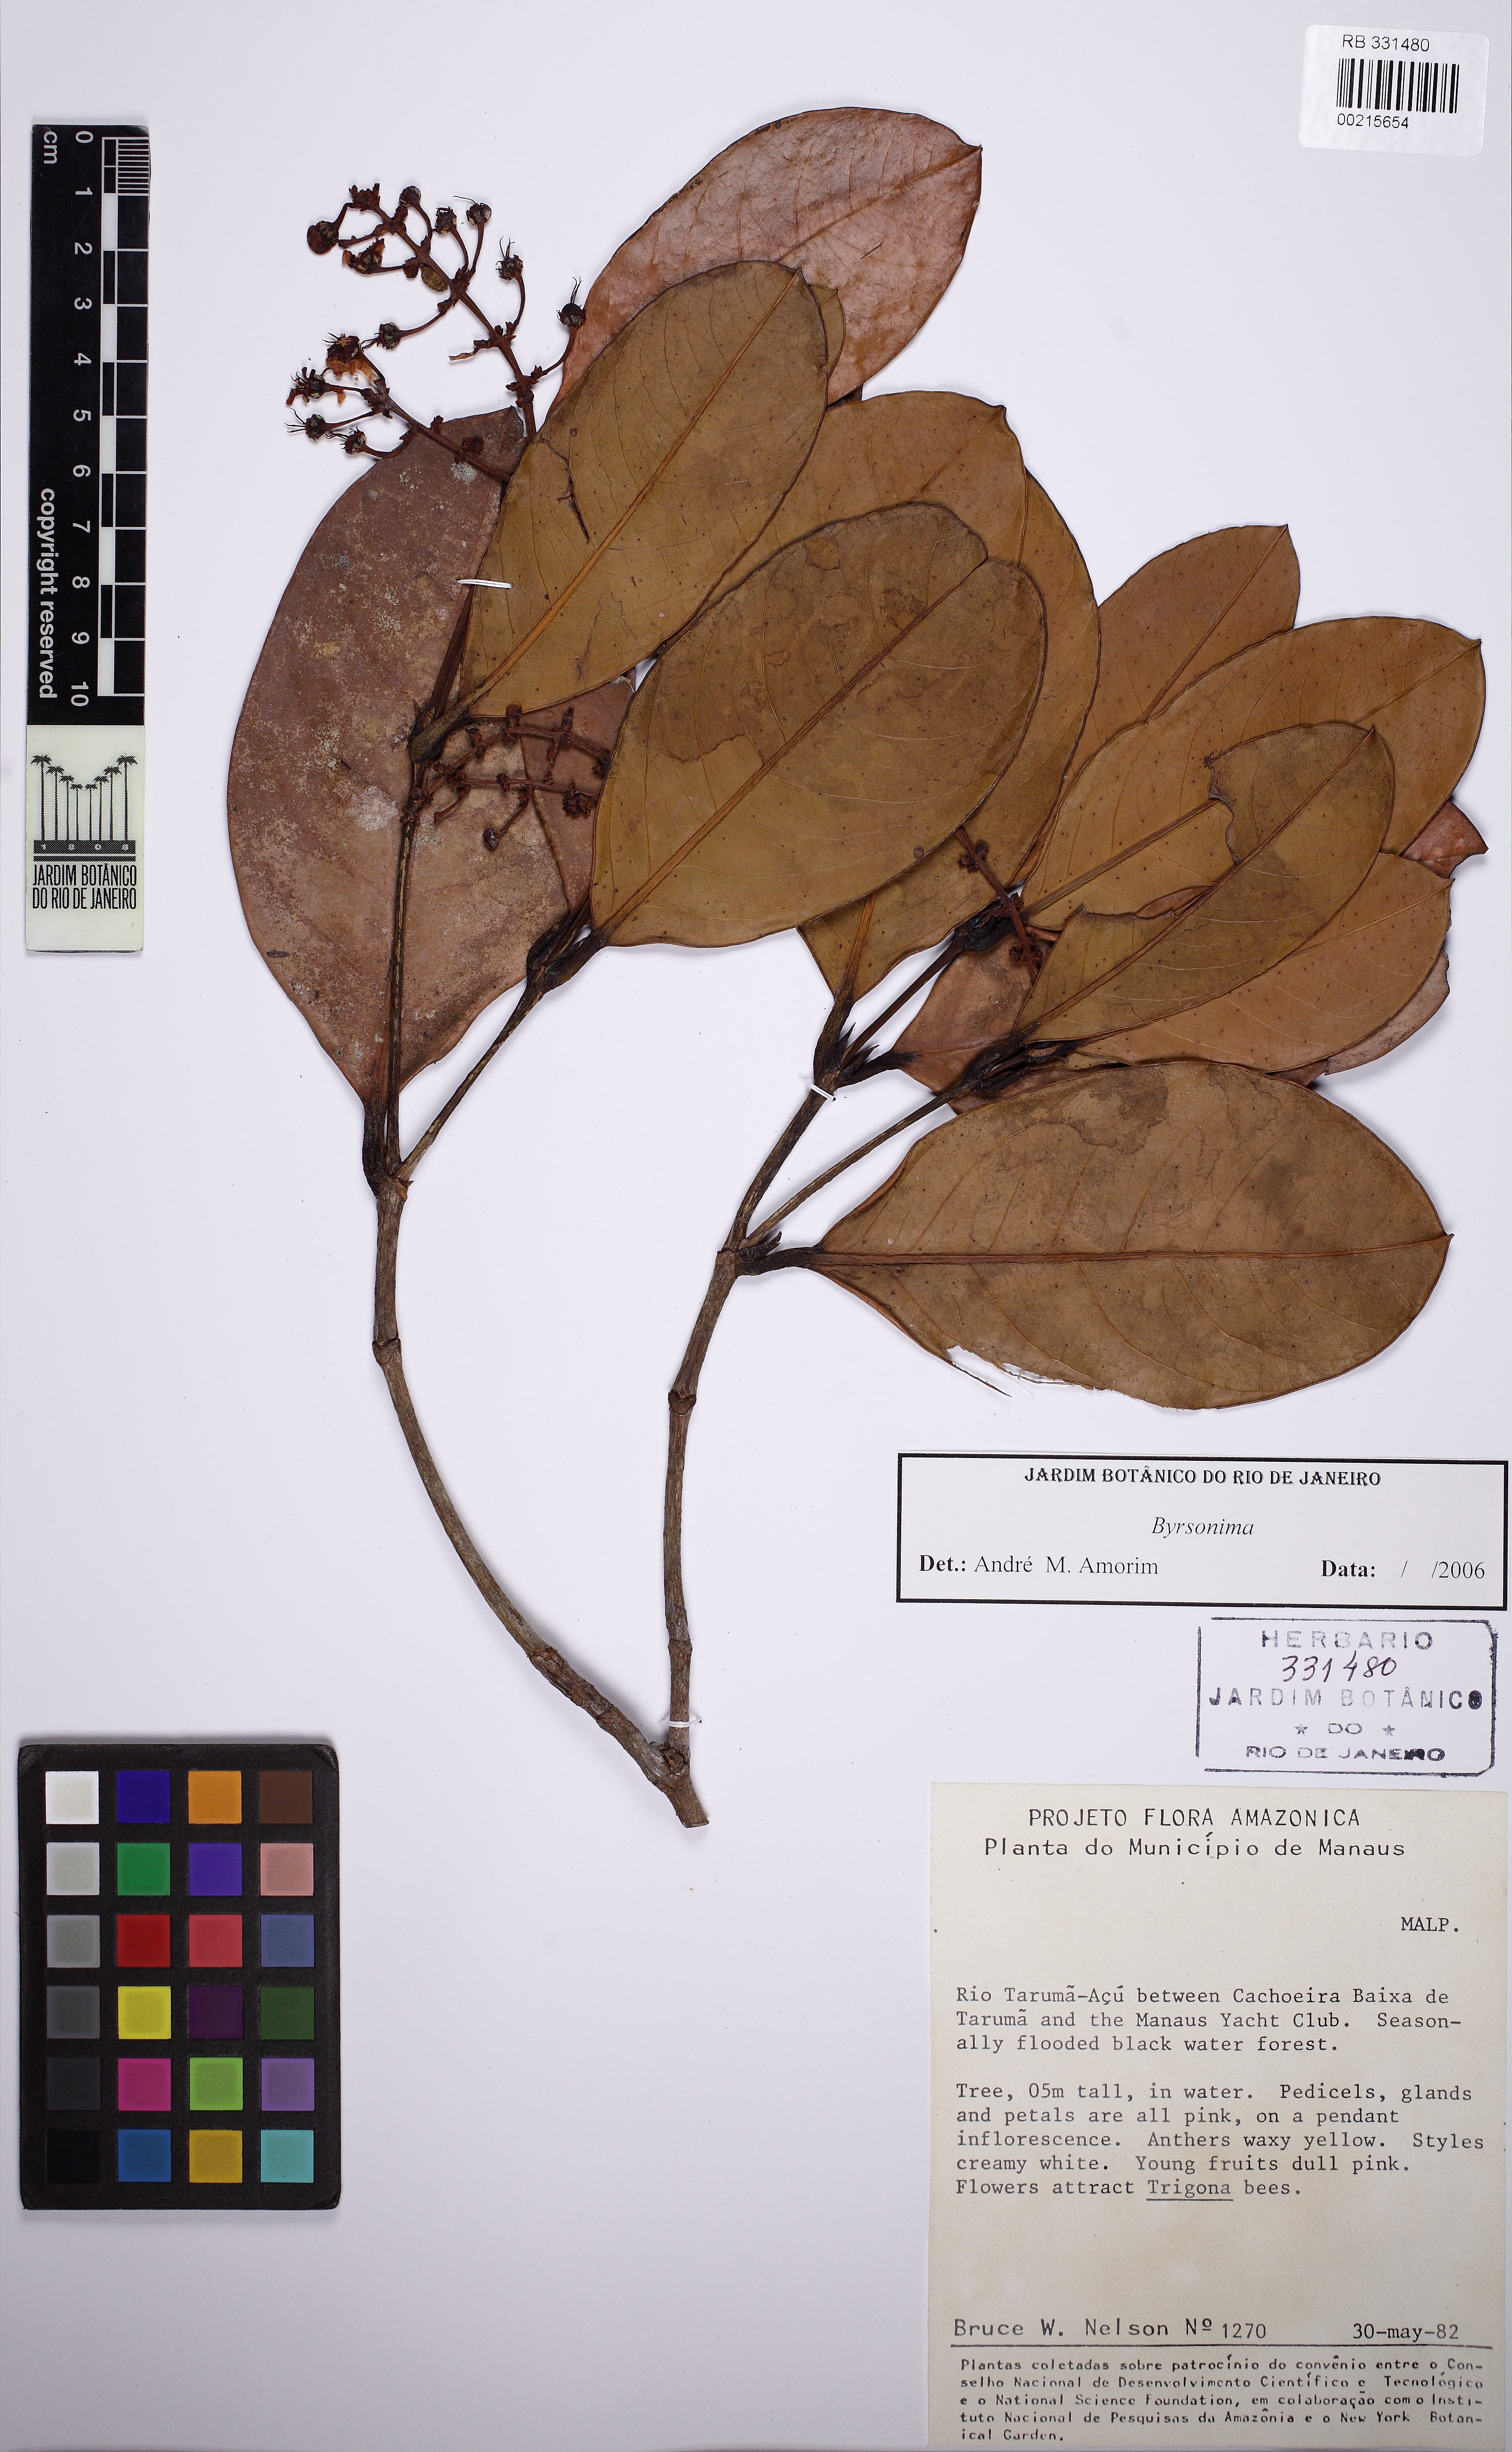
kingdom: Plantae
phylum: Tracheophyta
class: Magnoliopsida
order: Malpighiales
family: Malpighiaceae
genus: Burdachia
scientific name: Burdachia prismatocarpa
